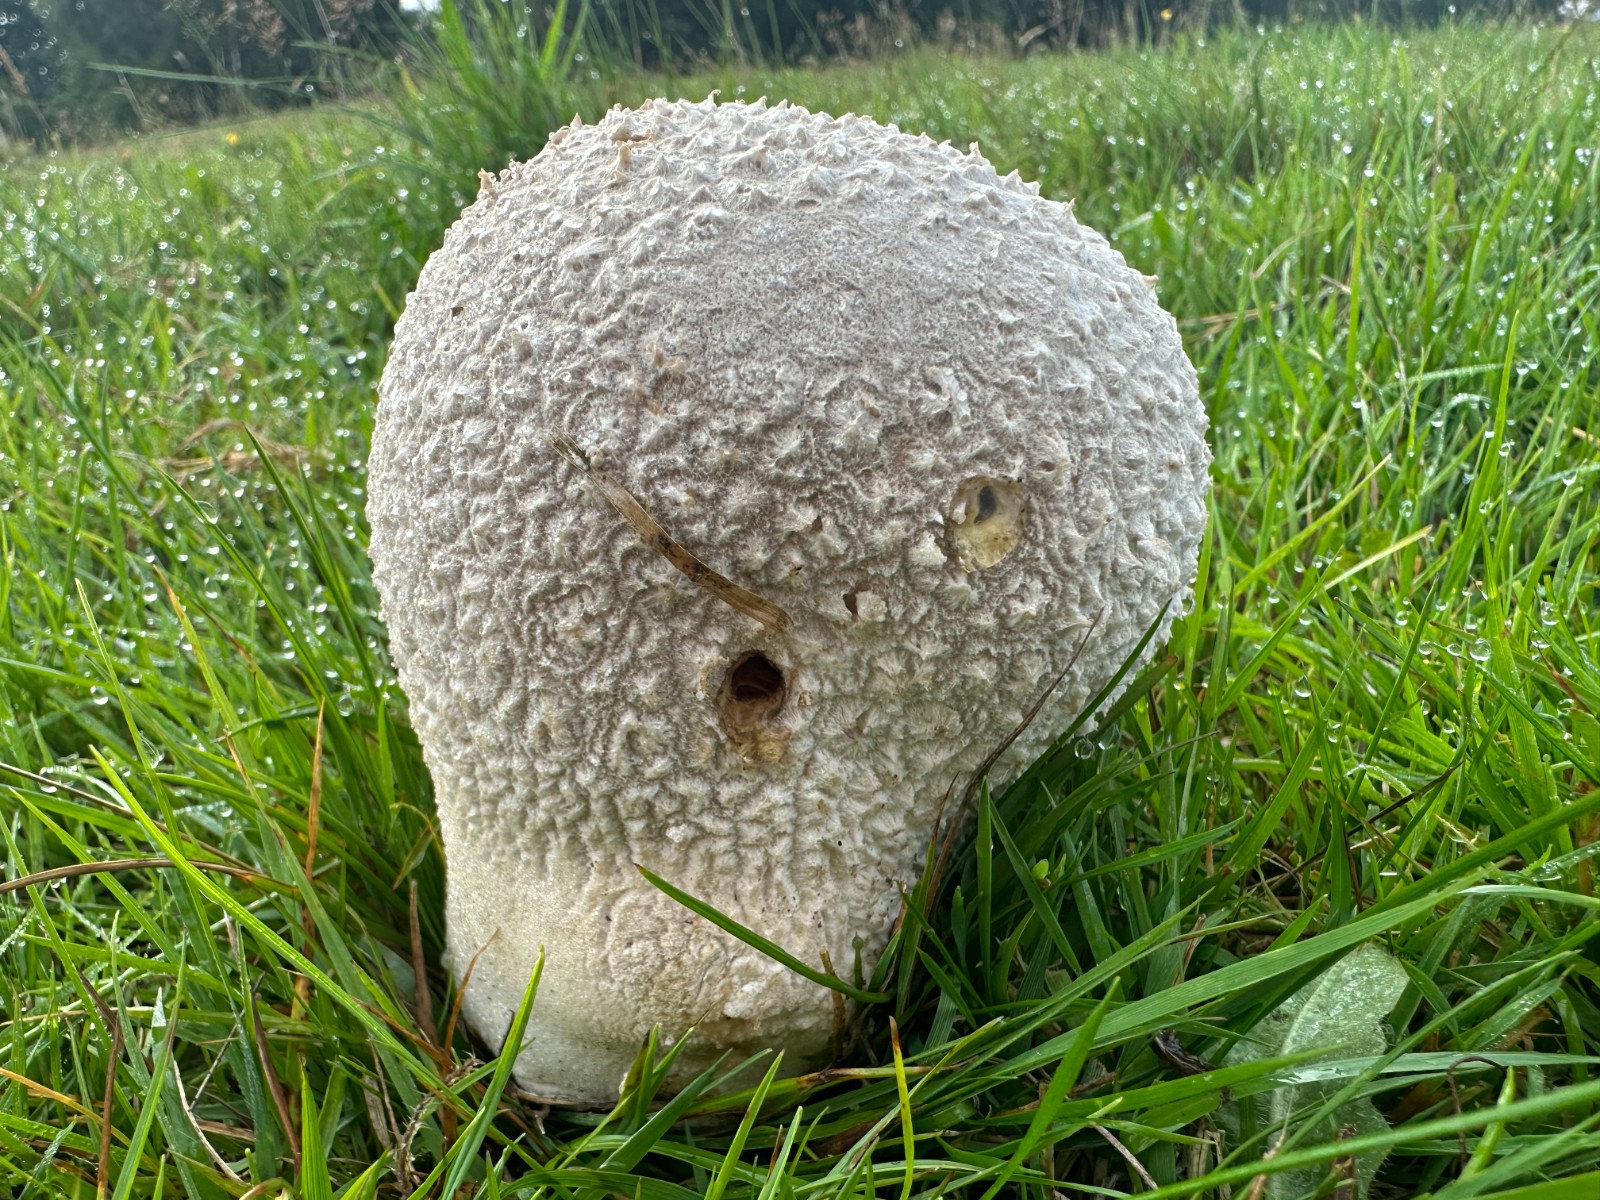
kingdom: Fungi
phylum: Basidiomycota
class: Agaricomycetes
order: Agaricales
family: Lycoperdaceae
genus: Bovistella
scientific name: Bovistella utriformis
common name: skællet støvbold
